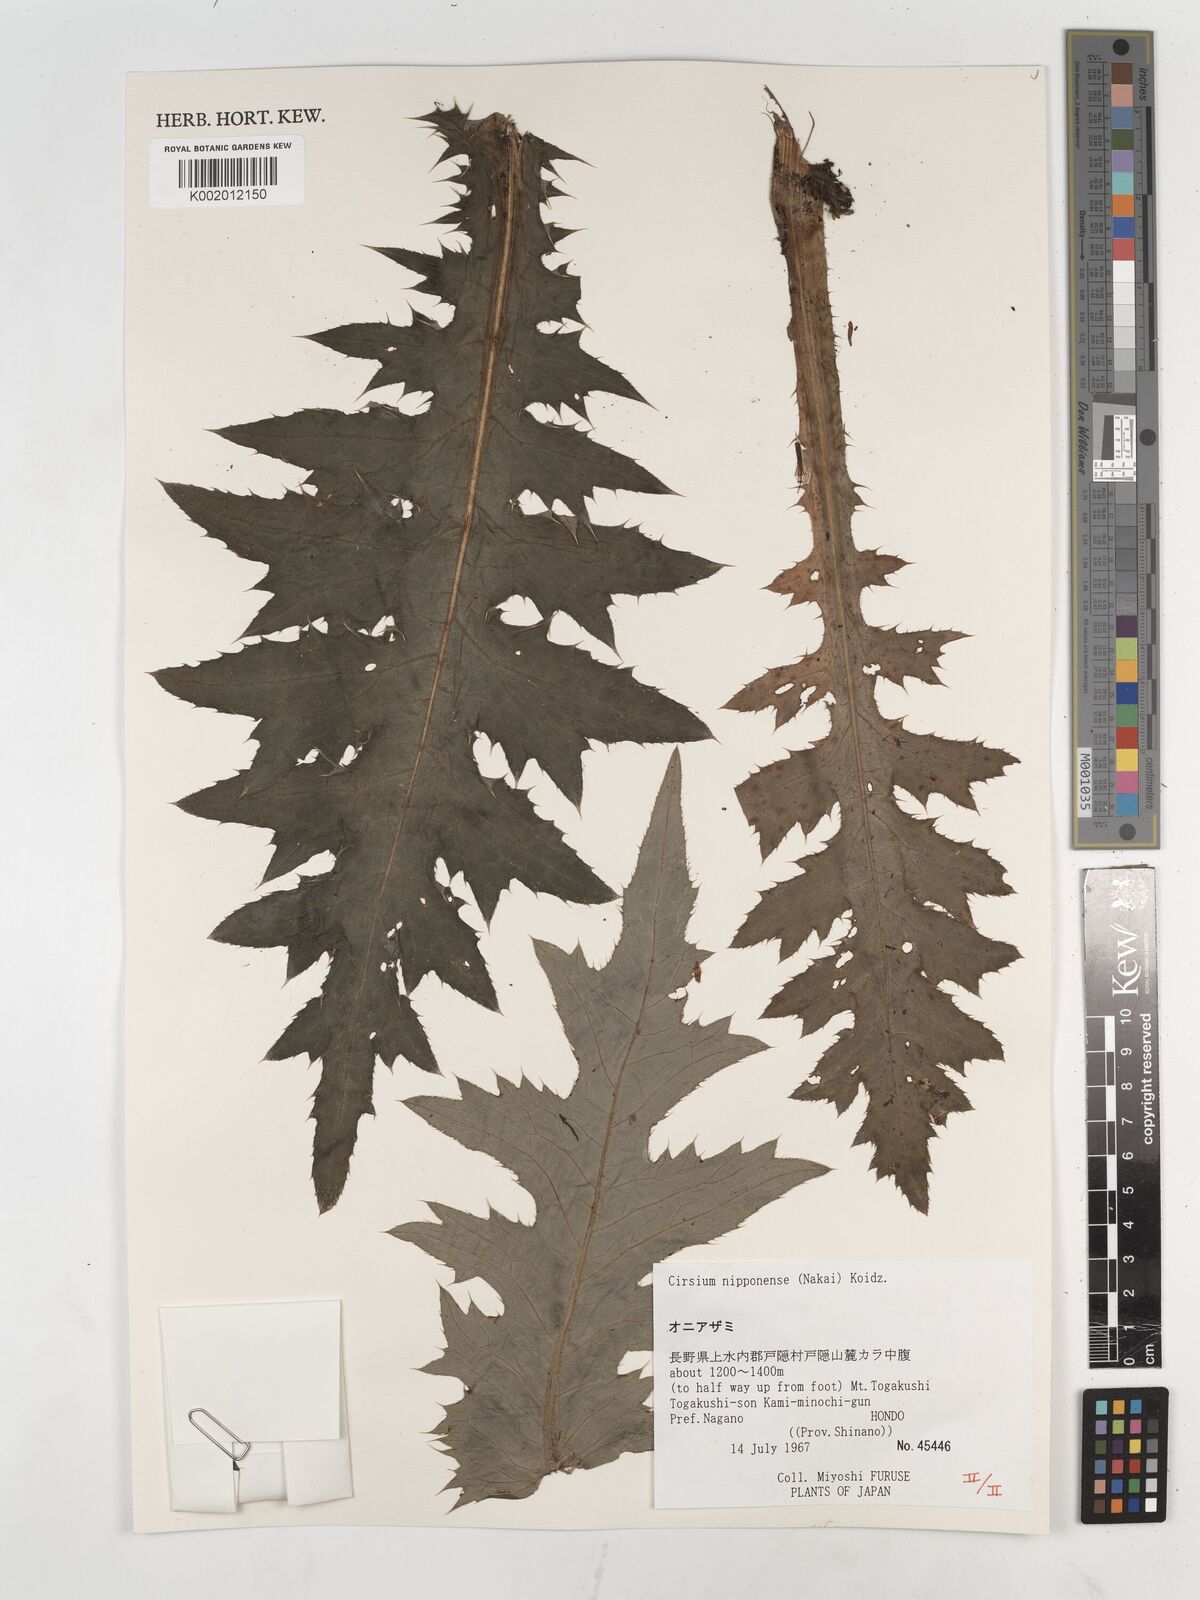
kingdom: Plantae
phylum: Tracheophyta
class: Magnoliopsida
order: Asterales
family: Asteraceae
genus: Cirsium
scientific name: Cirsium borealinipponense
